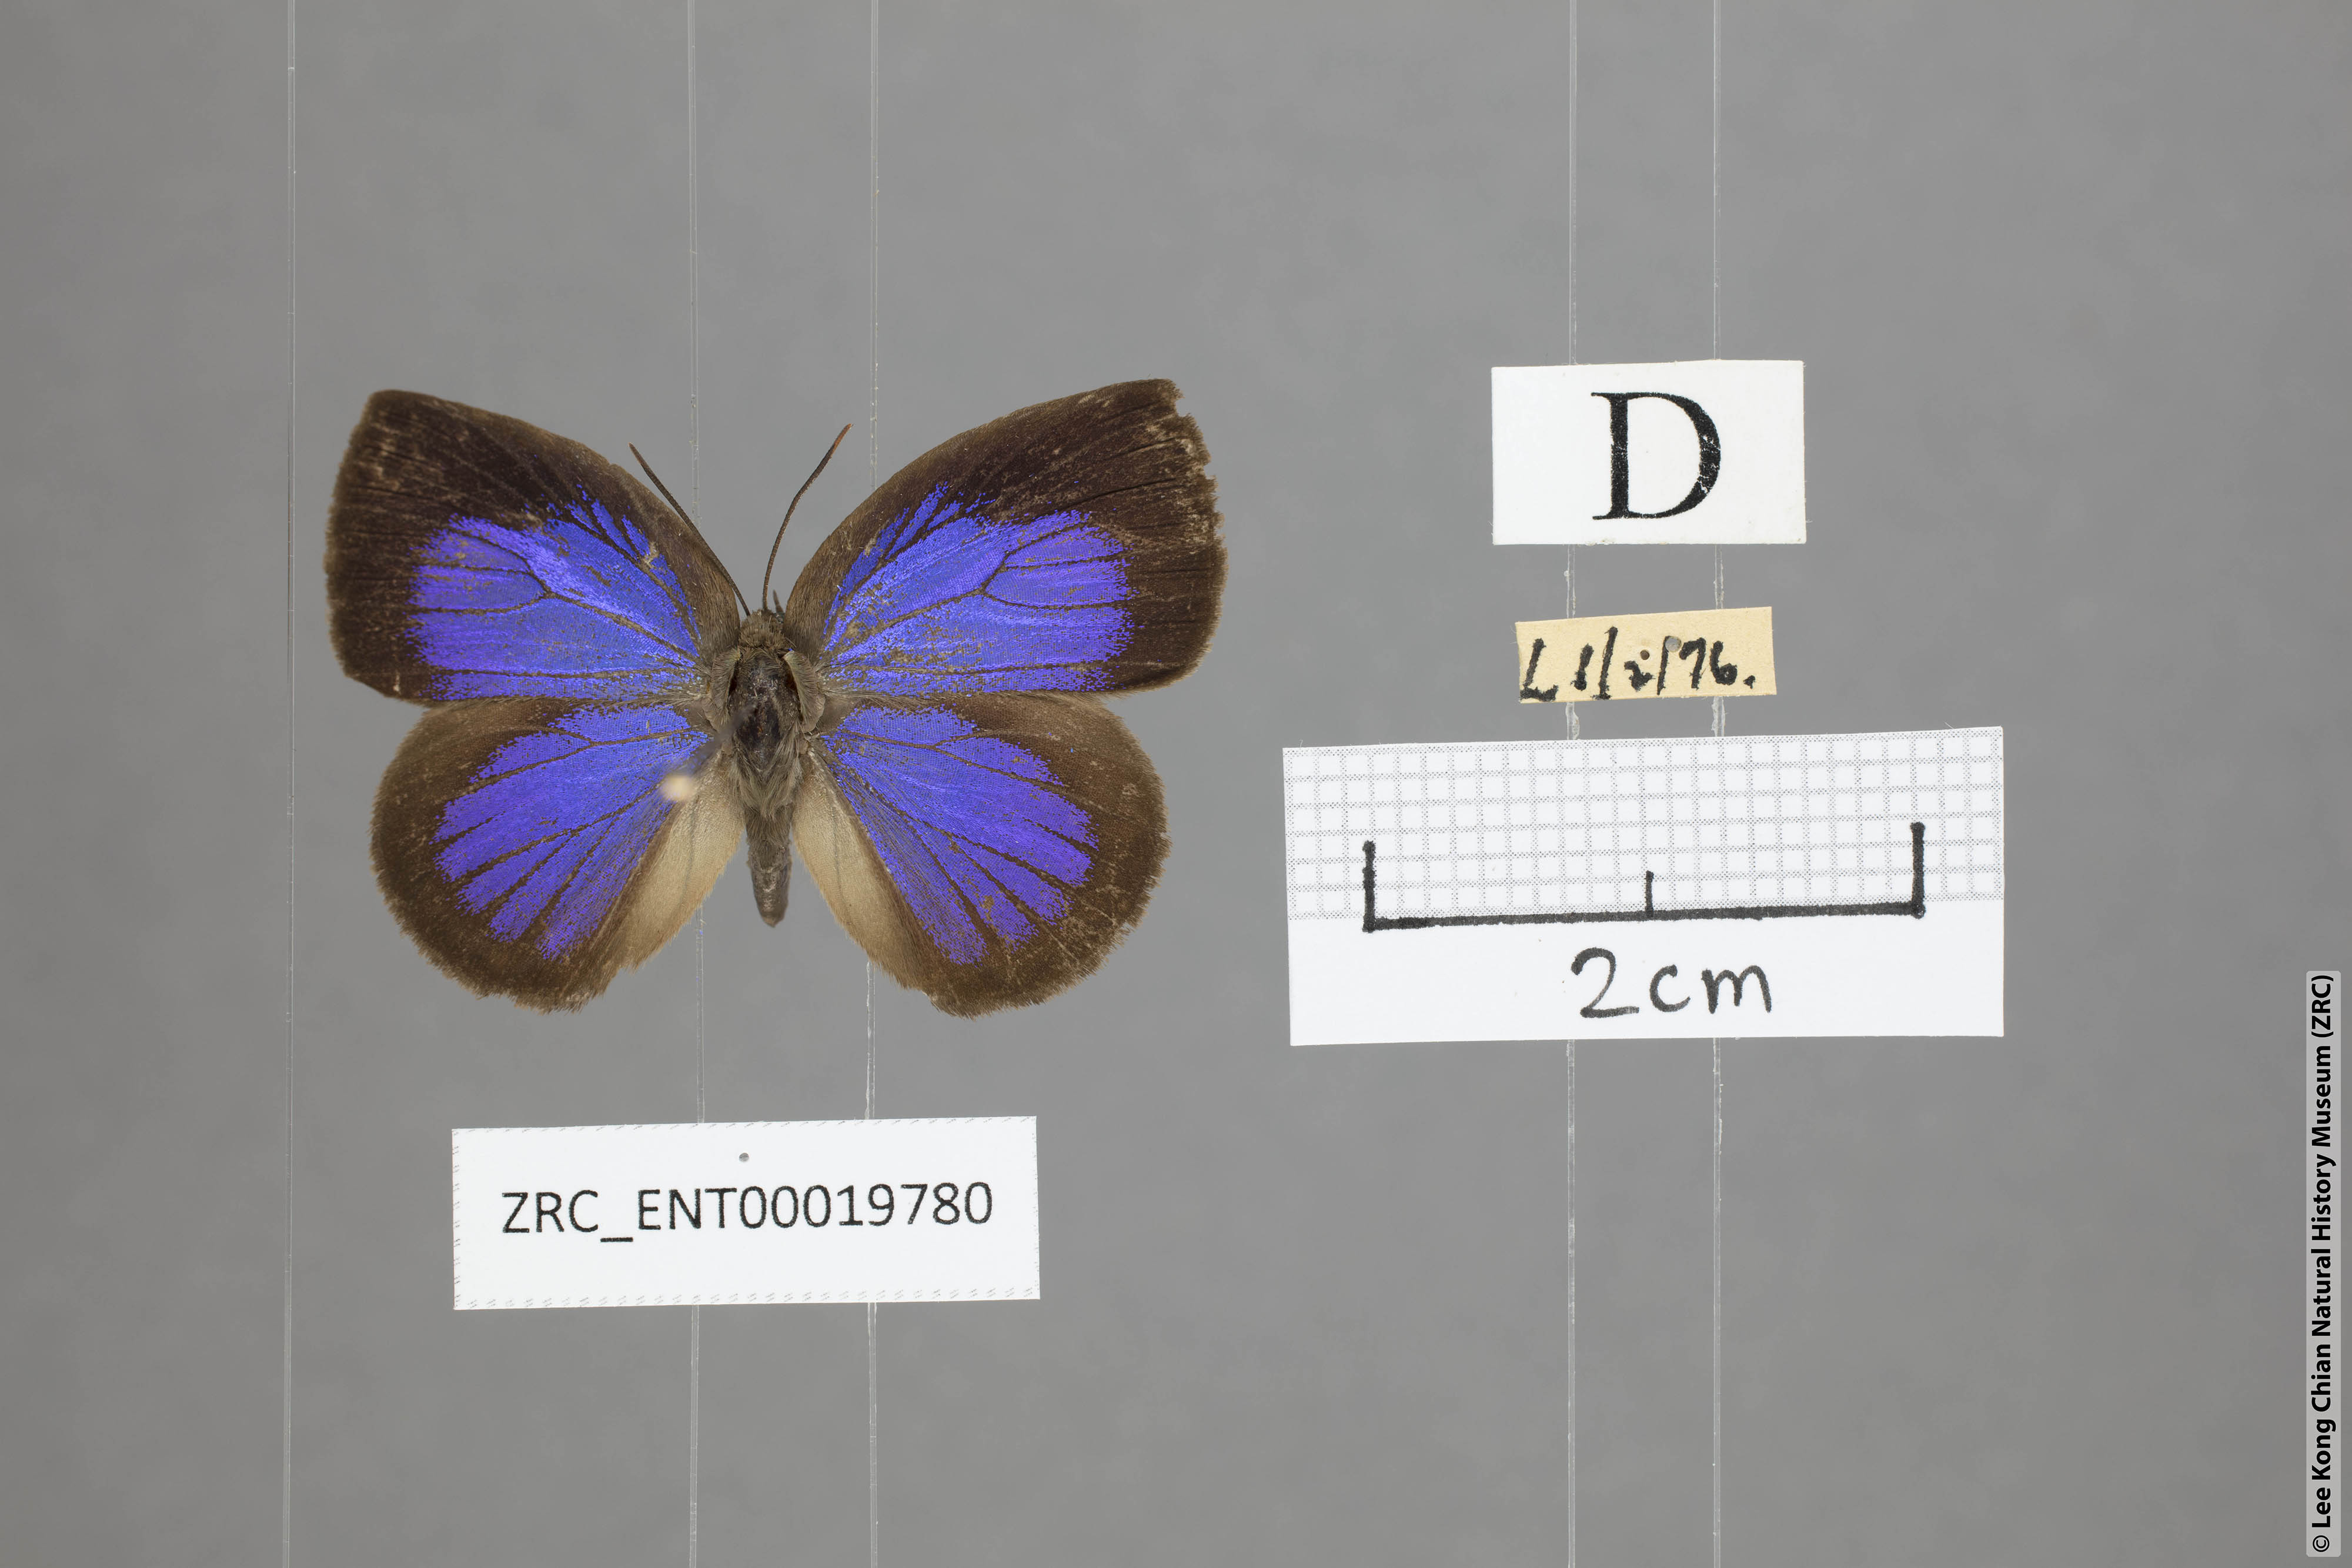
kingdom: Animalia
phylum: Arthropoda
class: Insecta
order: Lepidoptera
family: Lycaenidae
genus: Arhopala
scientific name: Arhopala perimuta
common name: Yellowdisc oakblue
